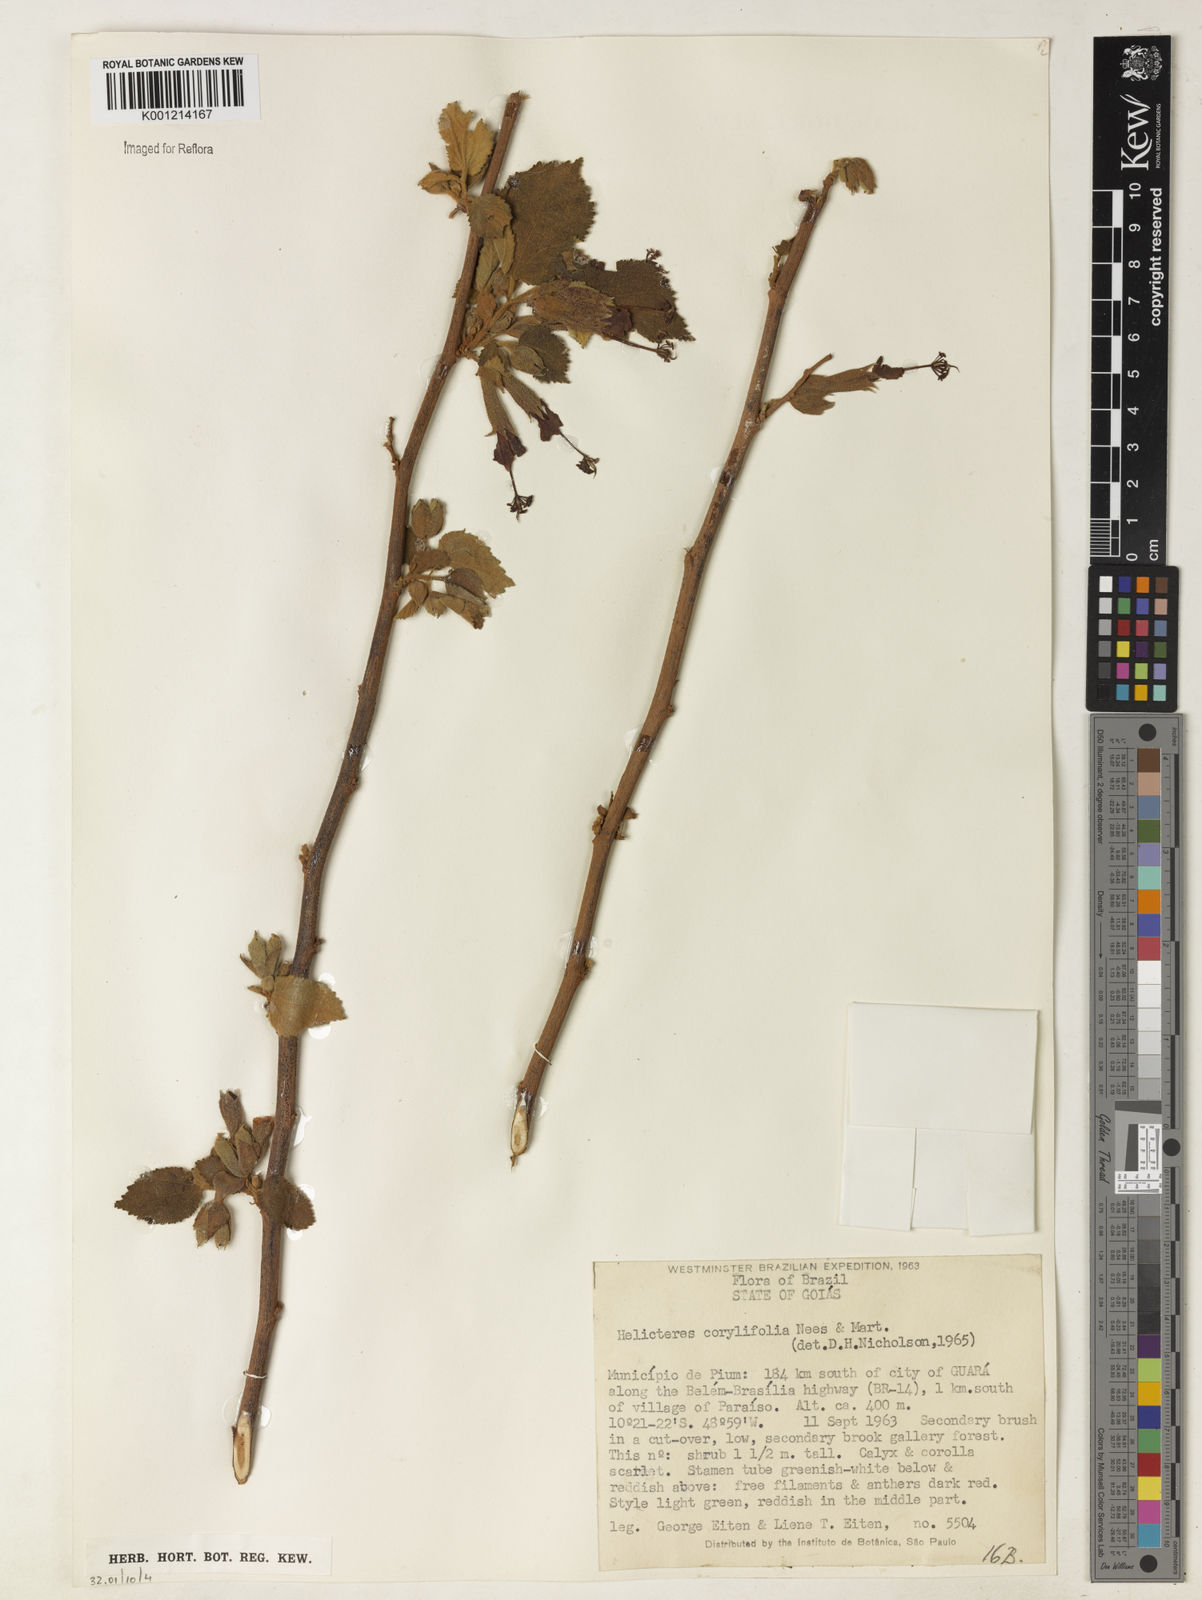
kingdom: Plantae
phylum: Tracheophyta
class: Magnoliopsida
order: Malvales
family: Malvaceae
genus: Helicteres
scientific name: Helicteres corylifolia
